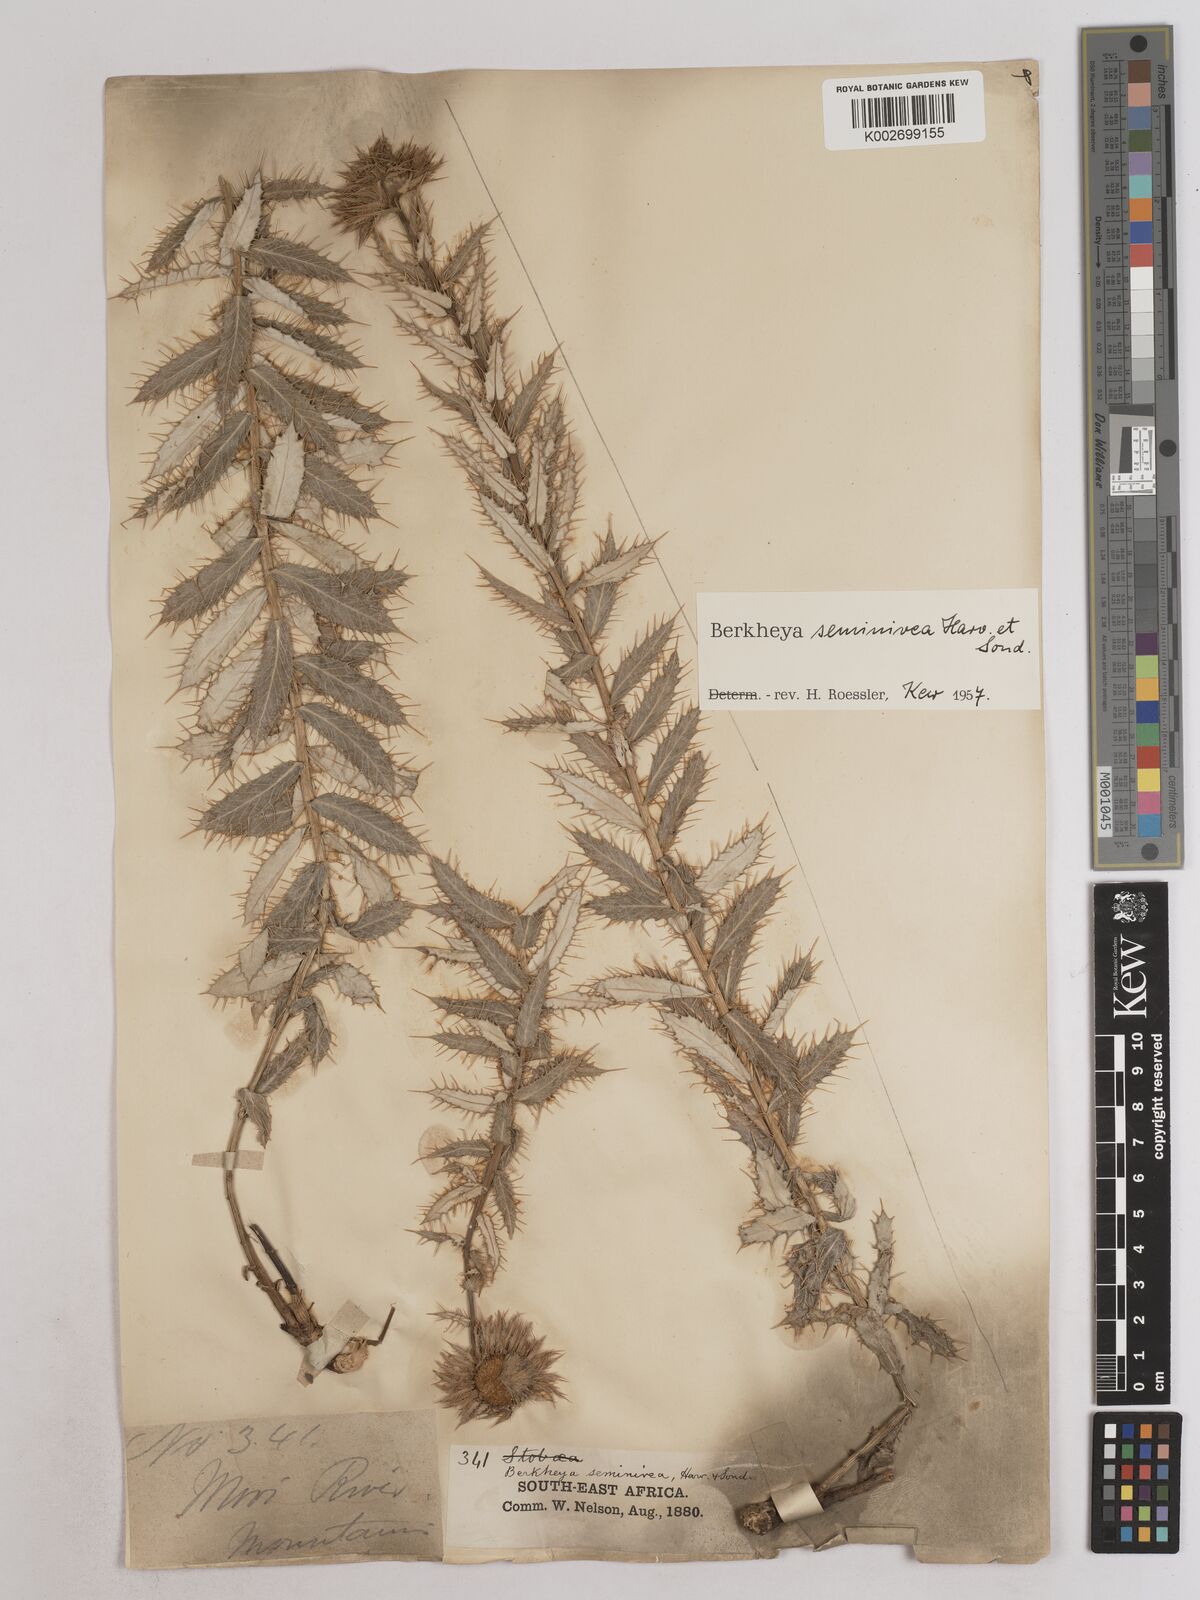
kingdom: Plantae
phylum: Tracheophyta
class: Magnoliopsida
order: Asterales
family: Asteraceae
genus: Berkheya
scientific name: Berkheya seminivea
